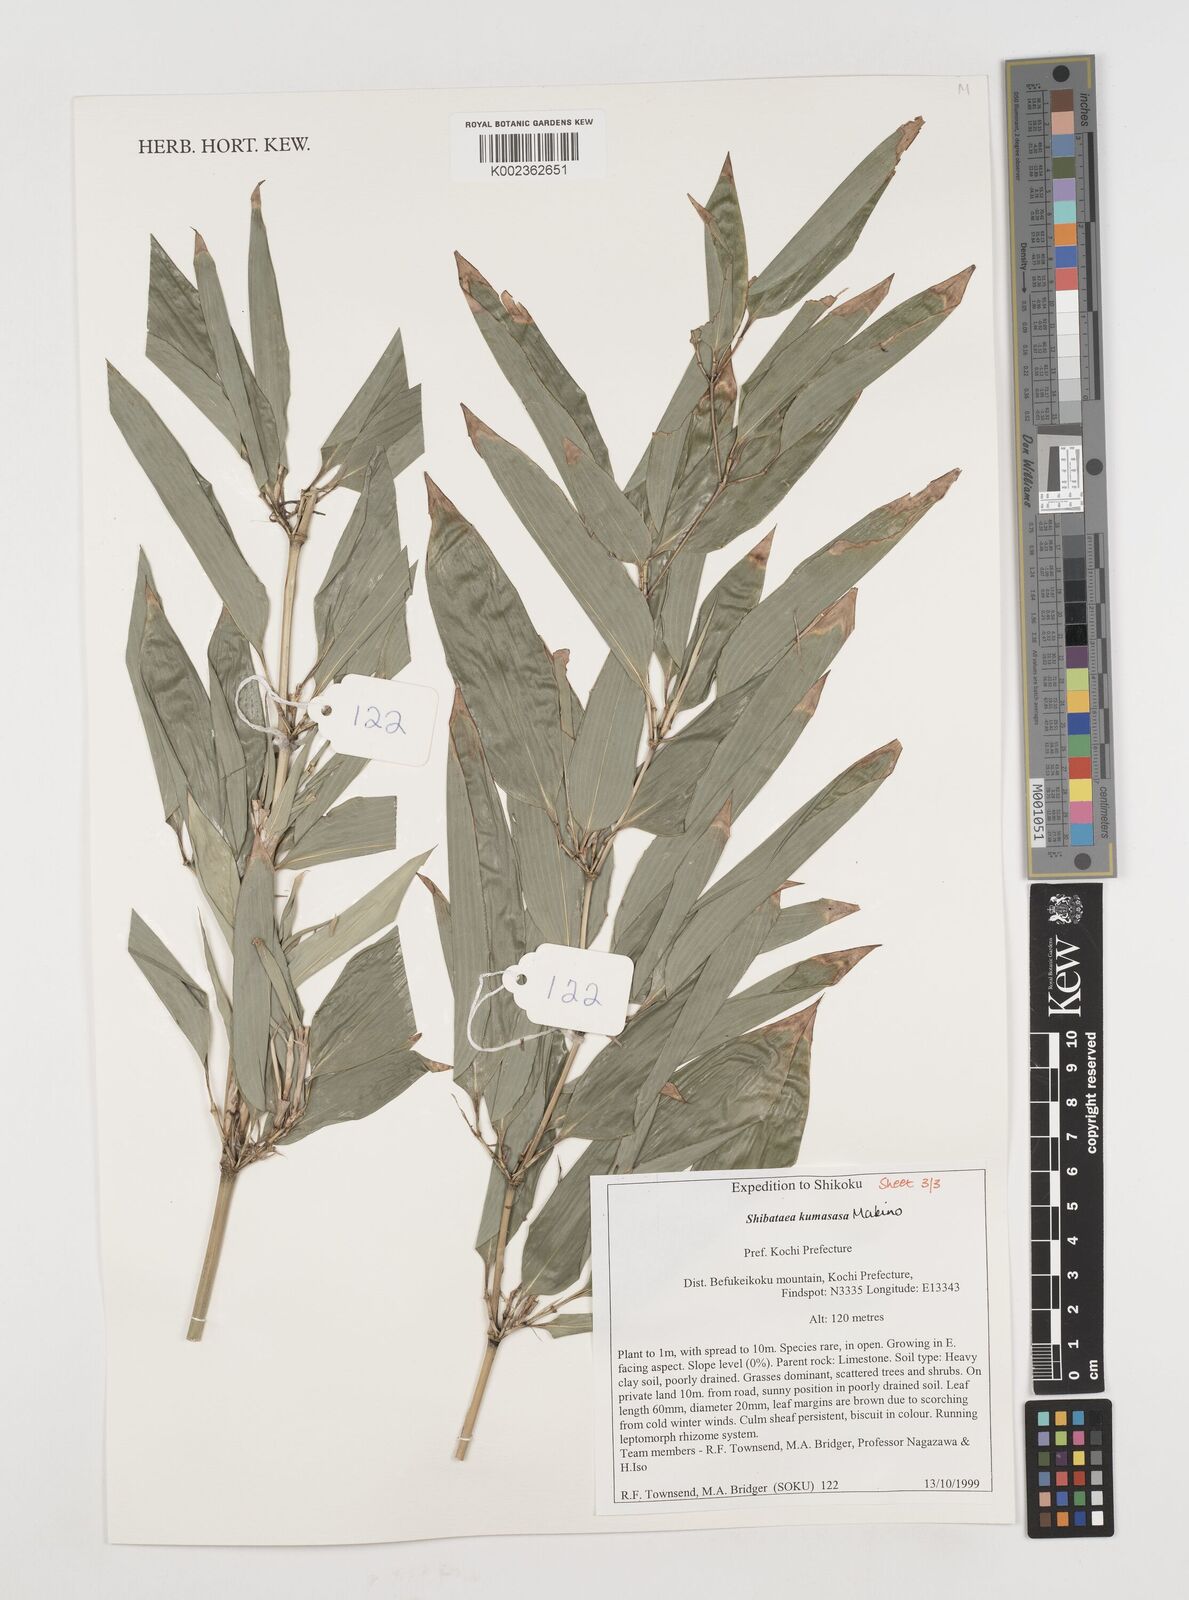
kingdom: Plantae
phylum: Tracheophyta
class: Liliopsida
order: Poales
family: Poaceae
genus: Shibataea
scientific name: Shibataea kumasasa
